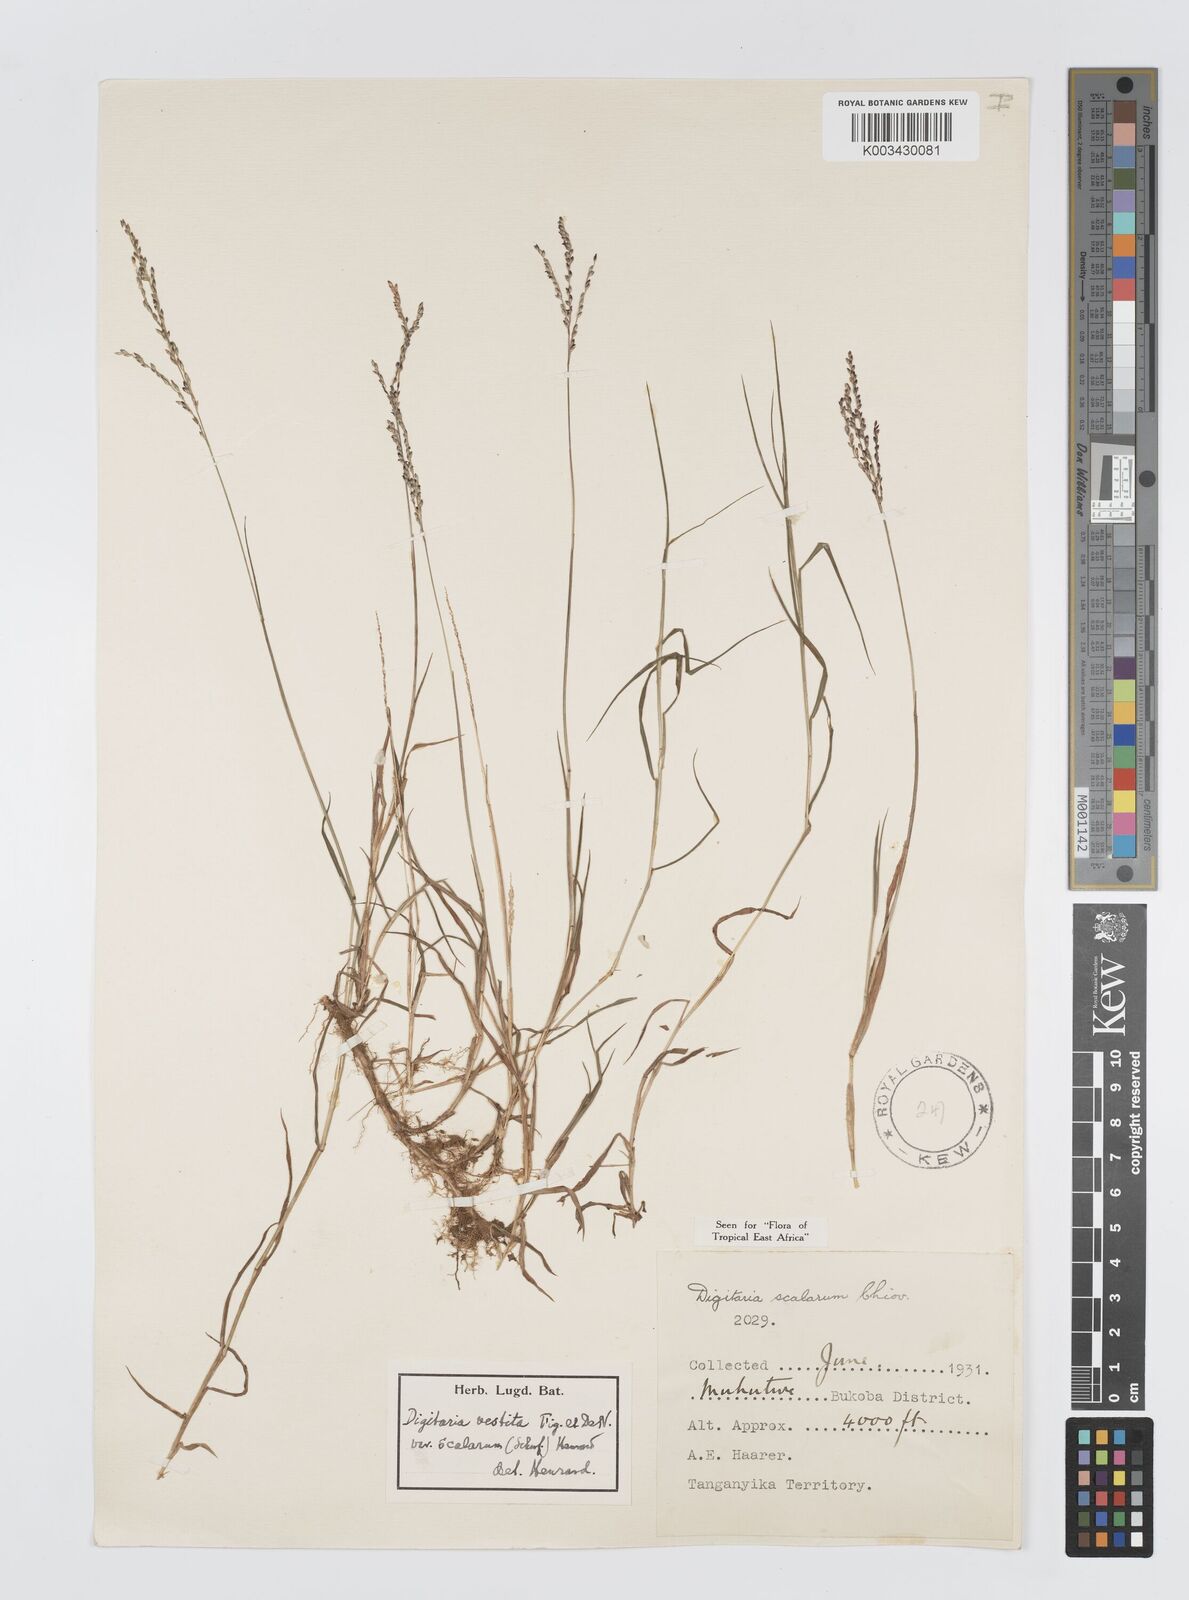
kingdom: Plantae
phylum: Tracheophyta
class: Liliopsida
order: Poales
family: Poaceae
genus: Digitaria
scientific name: Digitaria abyssinica
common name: African couchgrass
